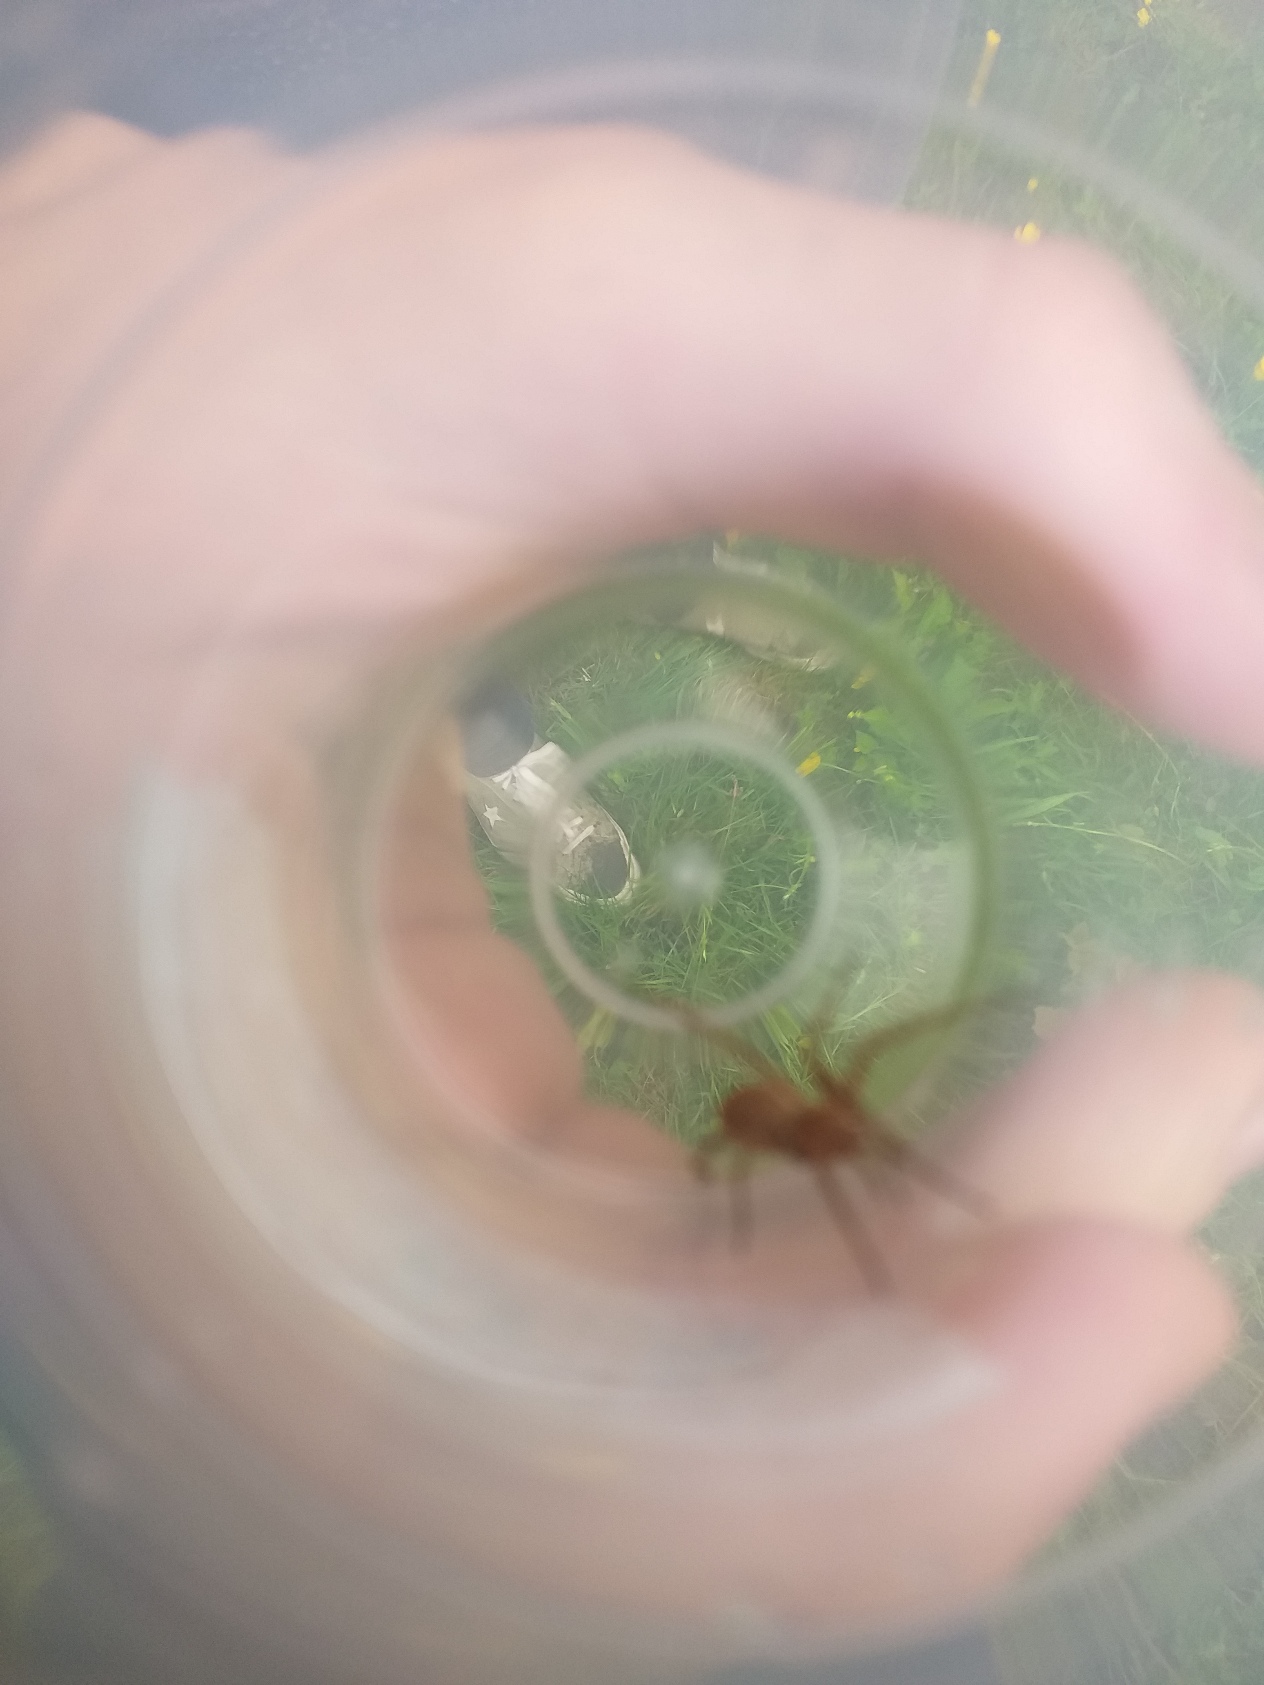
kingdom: Animalia
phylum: Arthropoda
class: Arachnida
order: Araneae
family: Pisauridae
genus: Pisaura
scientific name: Pisaura mirabilis
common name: Almindelig rovedderkop
